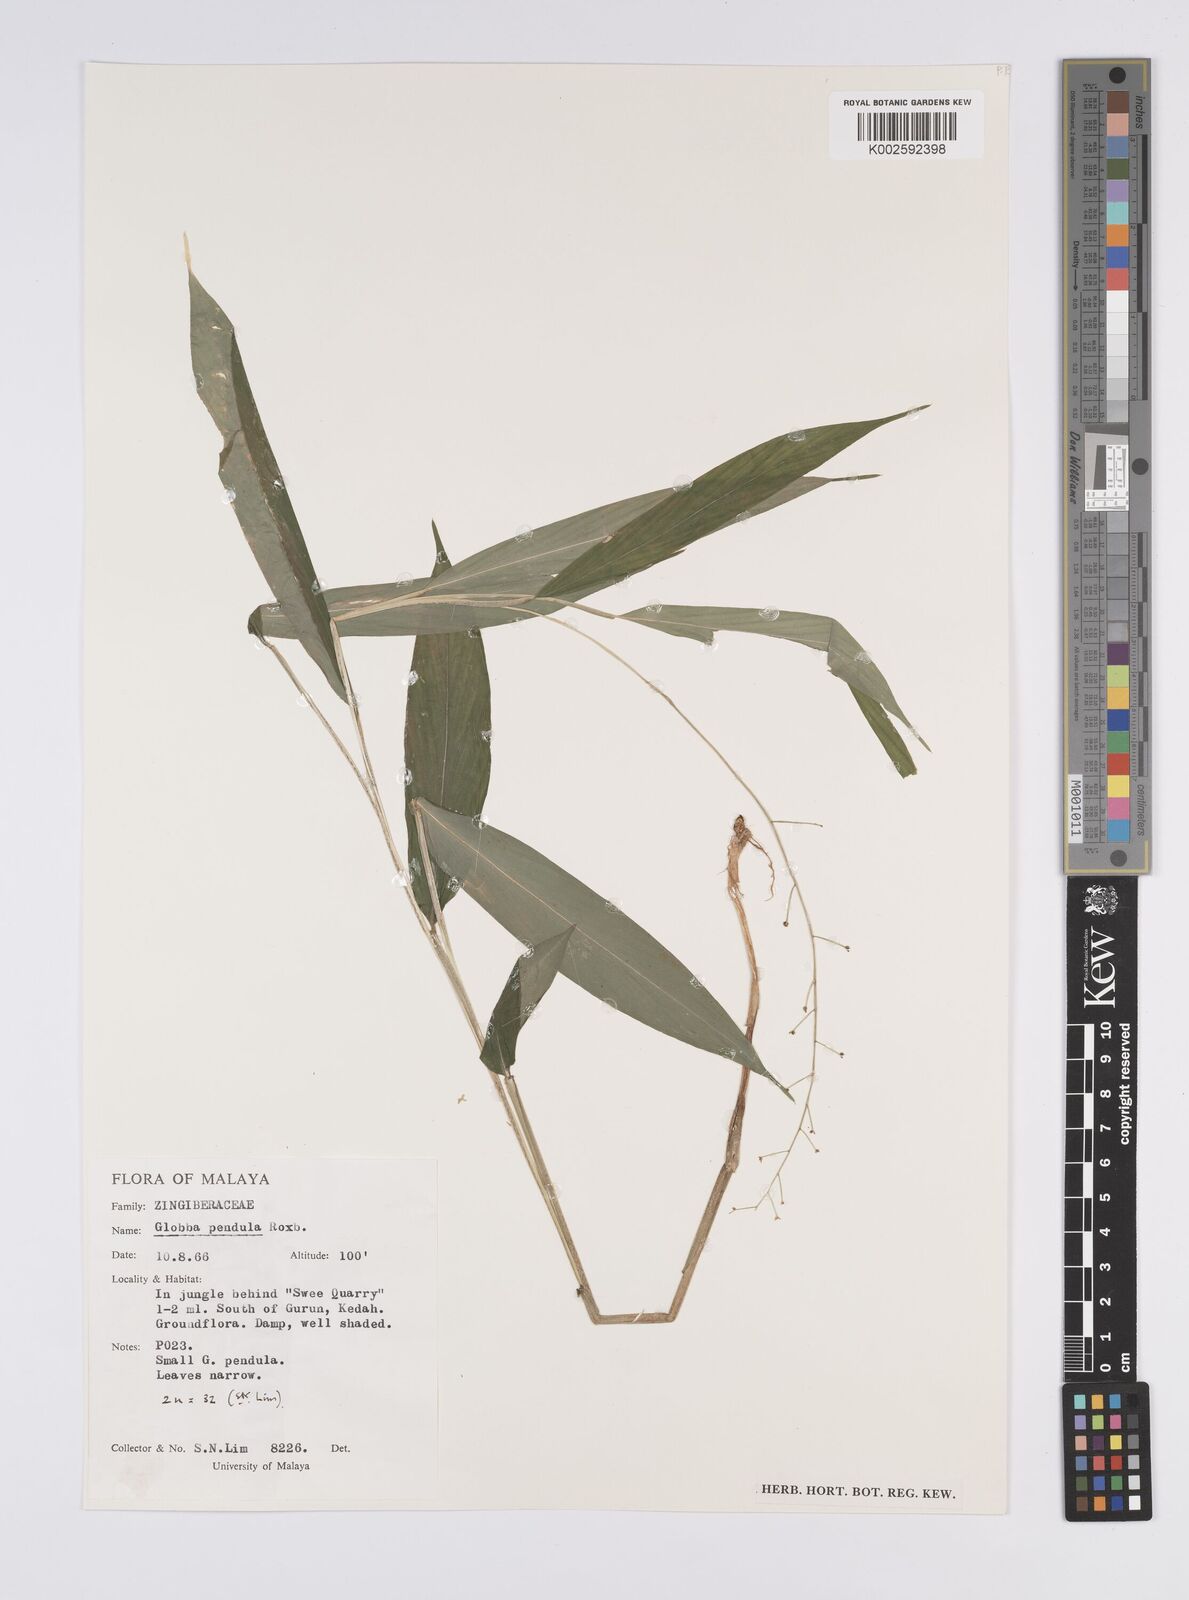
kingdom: Plantae
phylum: Tracheophyta
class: Liliopsida
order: Zingiberales
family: Zingiberaceae
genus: Globba
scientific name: Globba pendula
